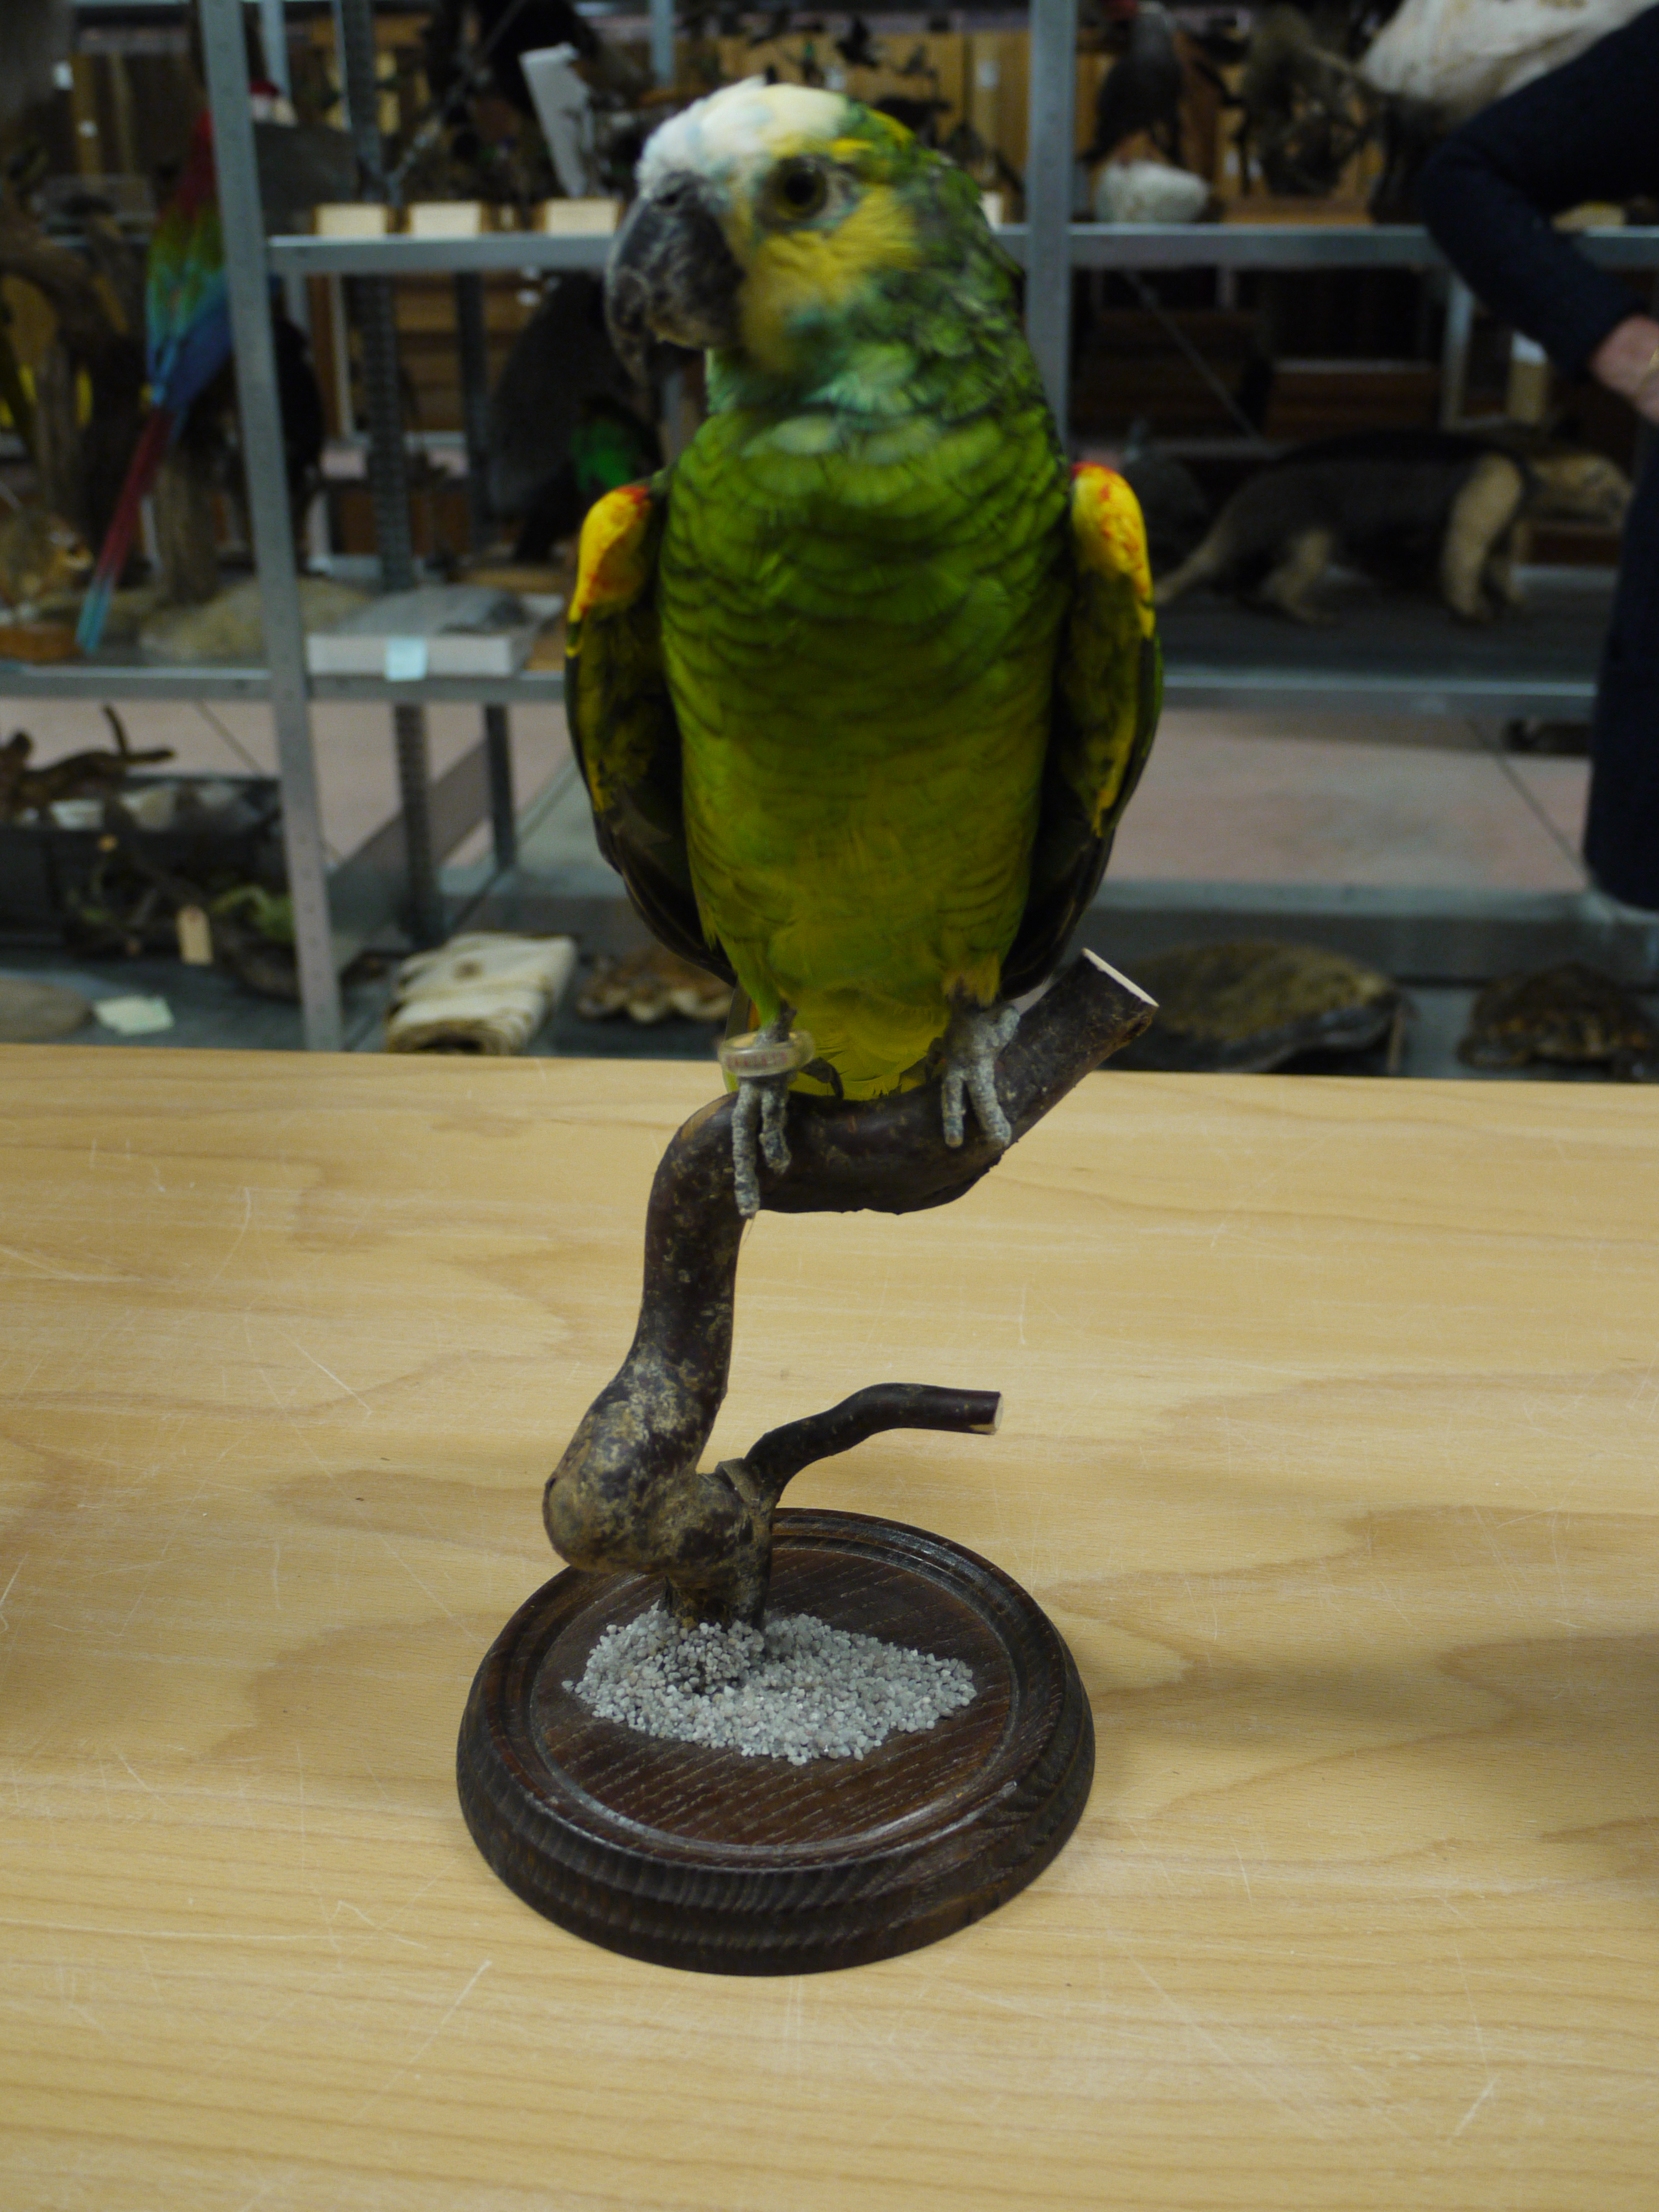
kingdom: Animalia
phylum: Chordata
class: Aves
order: Psittaciformes
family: Psittacidae
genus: Amazona
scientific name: Amazona aestiva
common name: Turquoise-fronted amazon
